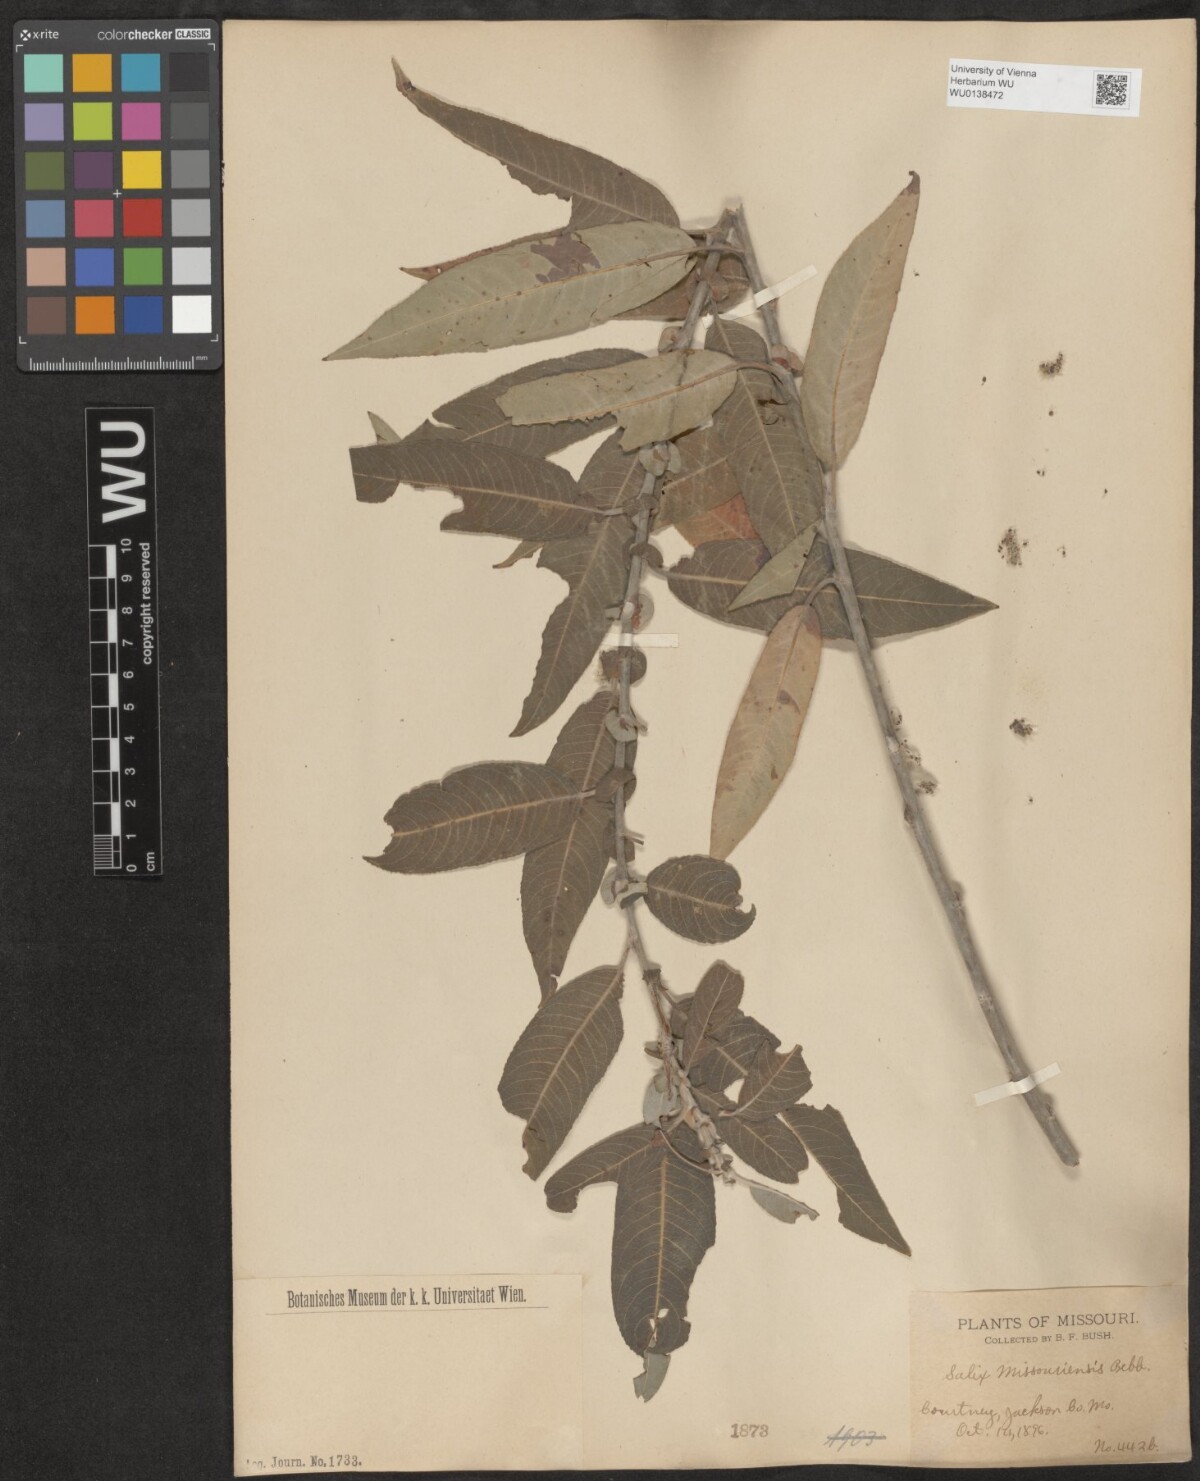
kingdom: Plantae
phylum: Tracheophyta
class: Magnoliopsida
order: Malpighiales
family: Salicaceae
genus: Salix
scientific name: Salix eriocephala
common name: Heart-leaved willow
